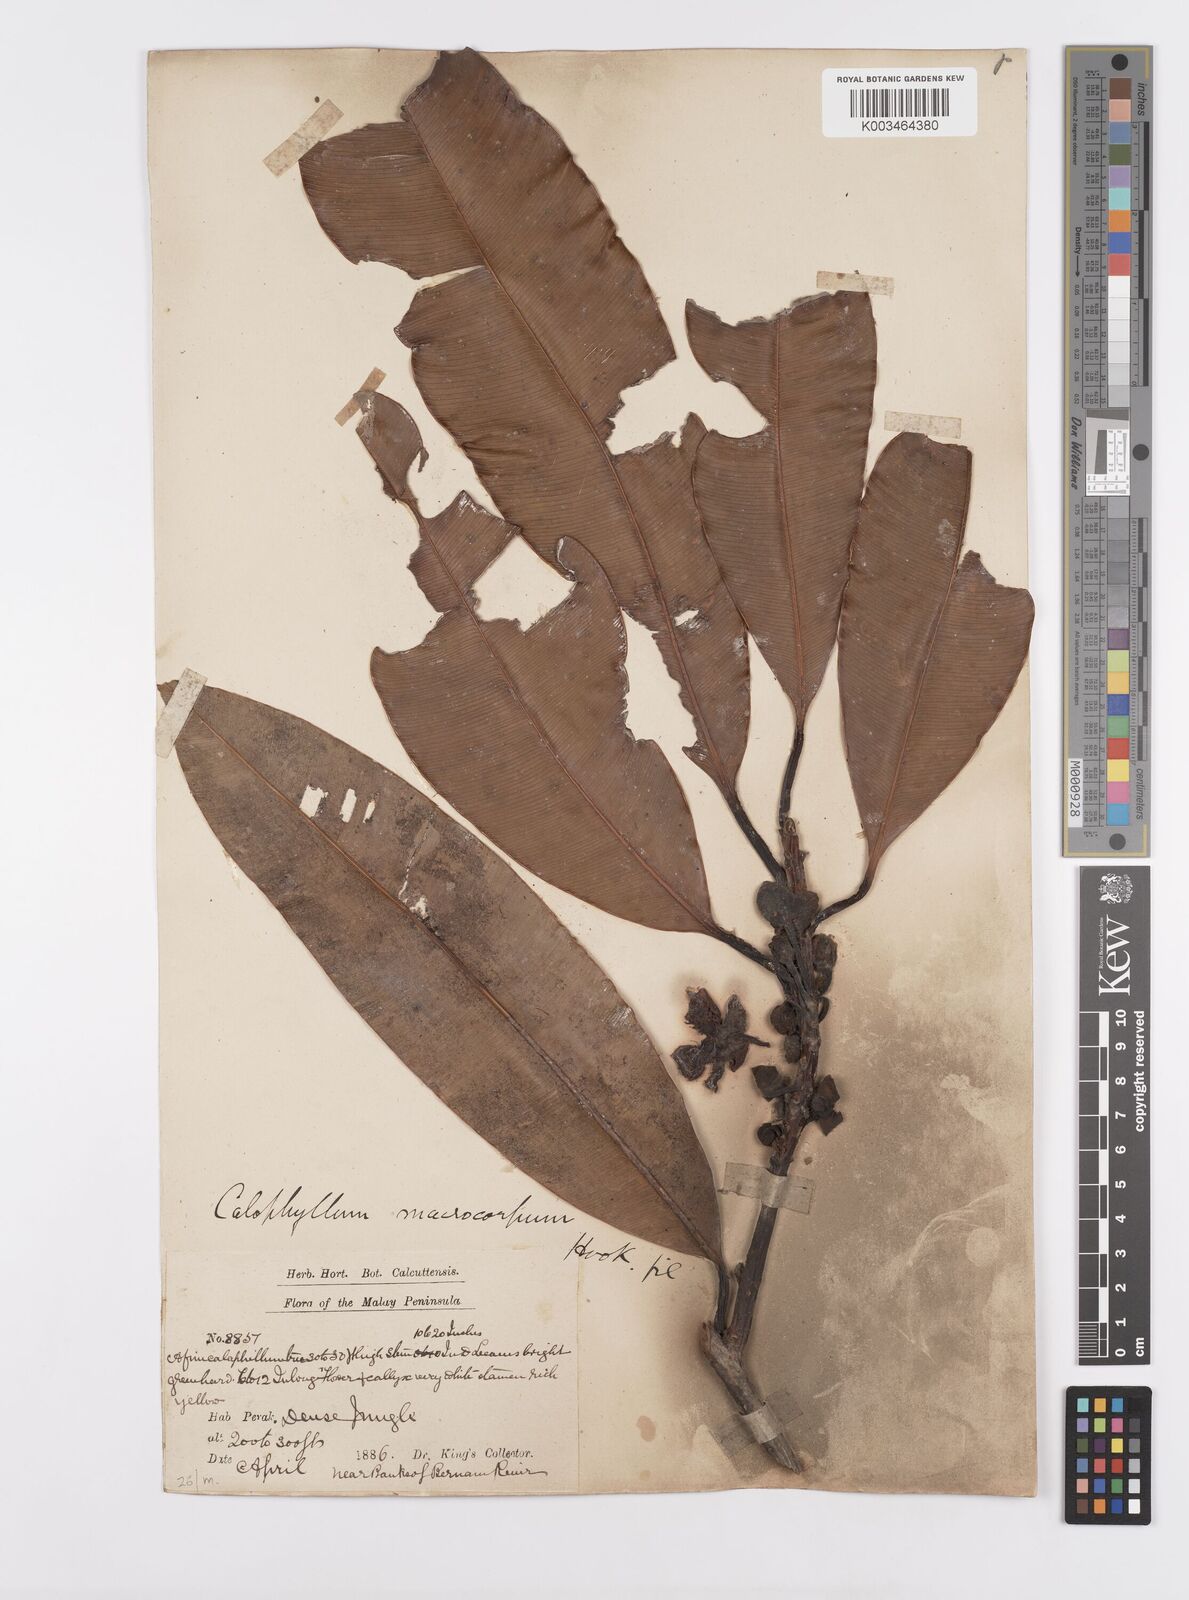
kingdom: Plantae
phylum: Tracheophyta
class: Magnoliopsida
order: Malpighiales
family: Calophyllaceae
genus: Calophyllum
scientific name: Calophyllum macrocarpum
